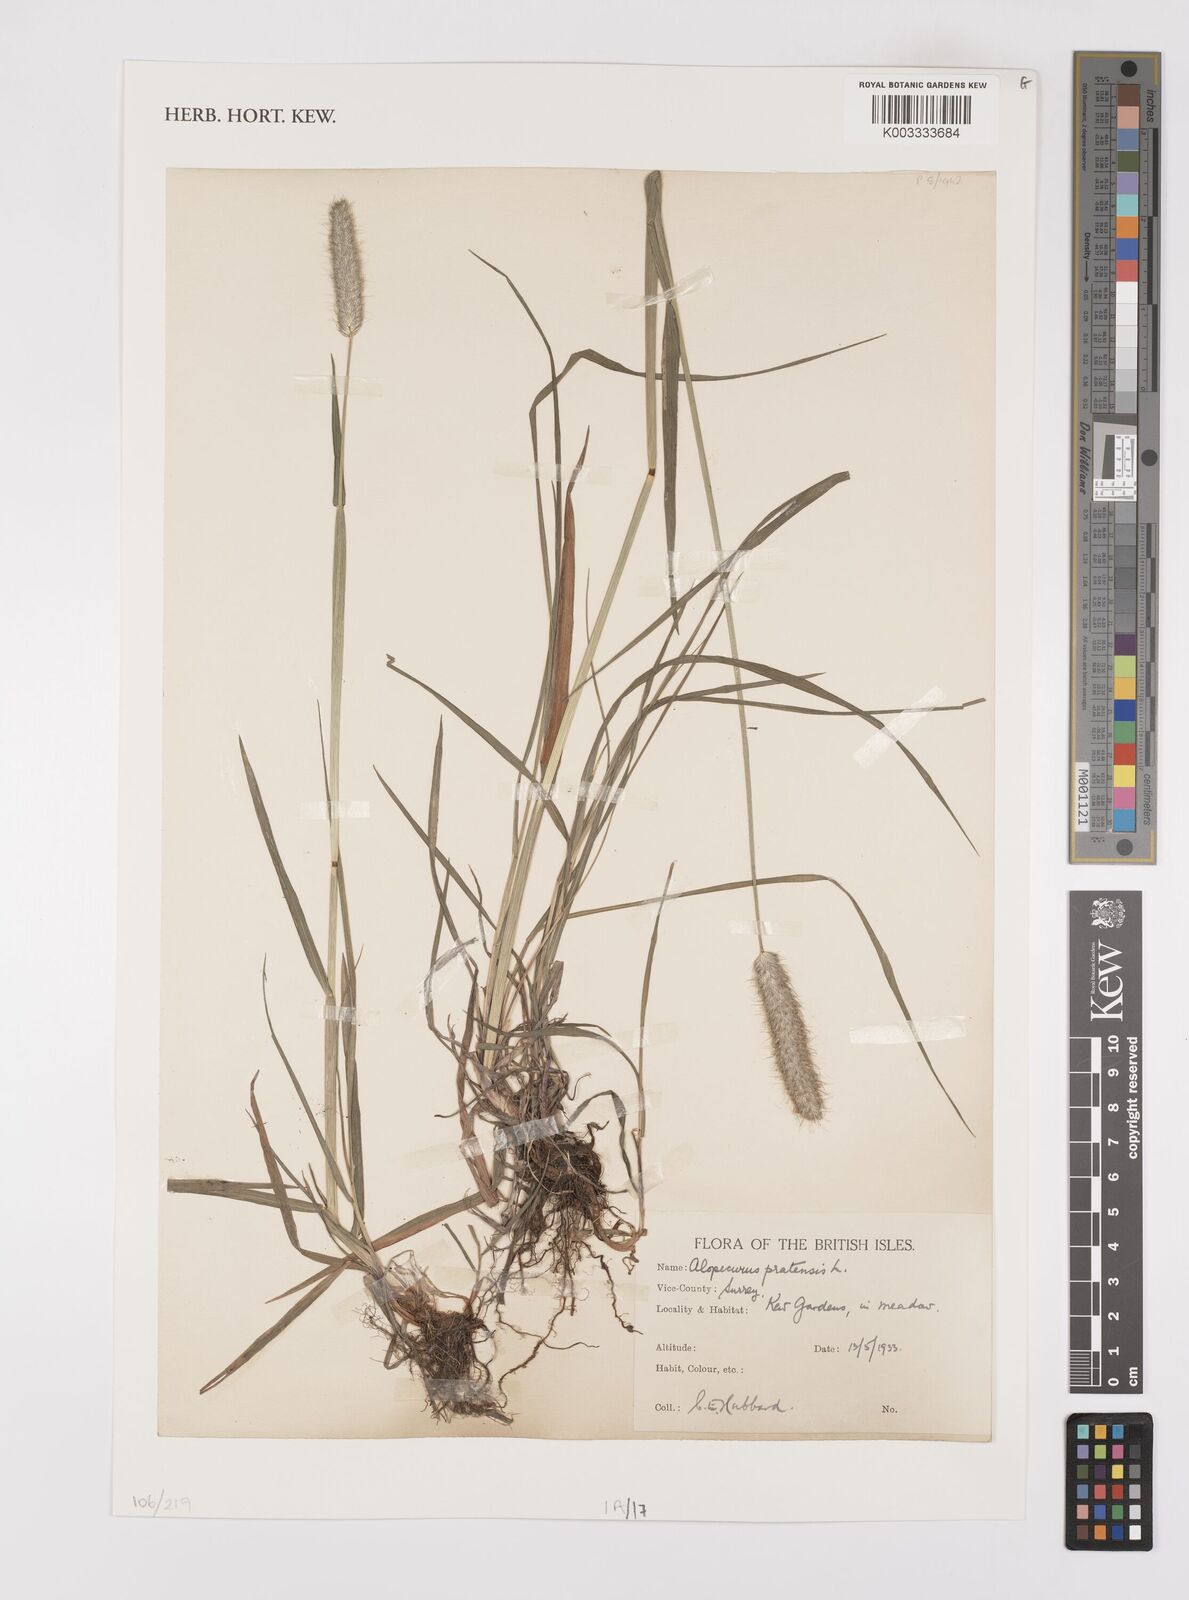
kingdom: Plantae
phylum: Tracheophyta
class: Liliopsida
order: Poales
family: Poaceae
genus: Alopecurus
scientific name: Alopecurus pratensis
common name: Meadow foxtail
